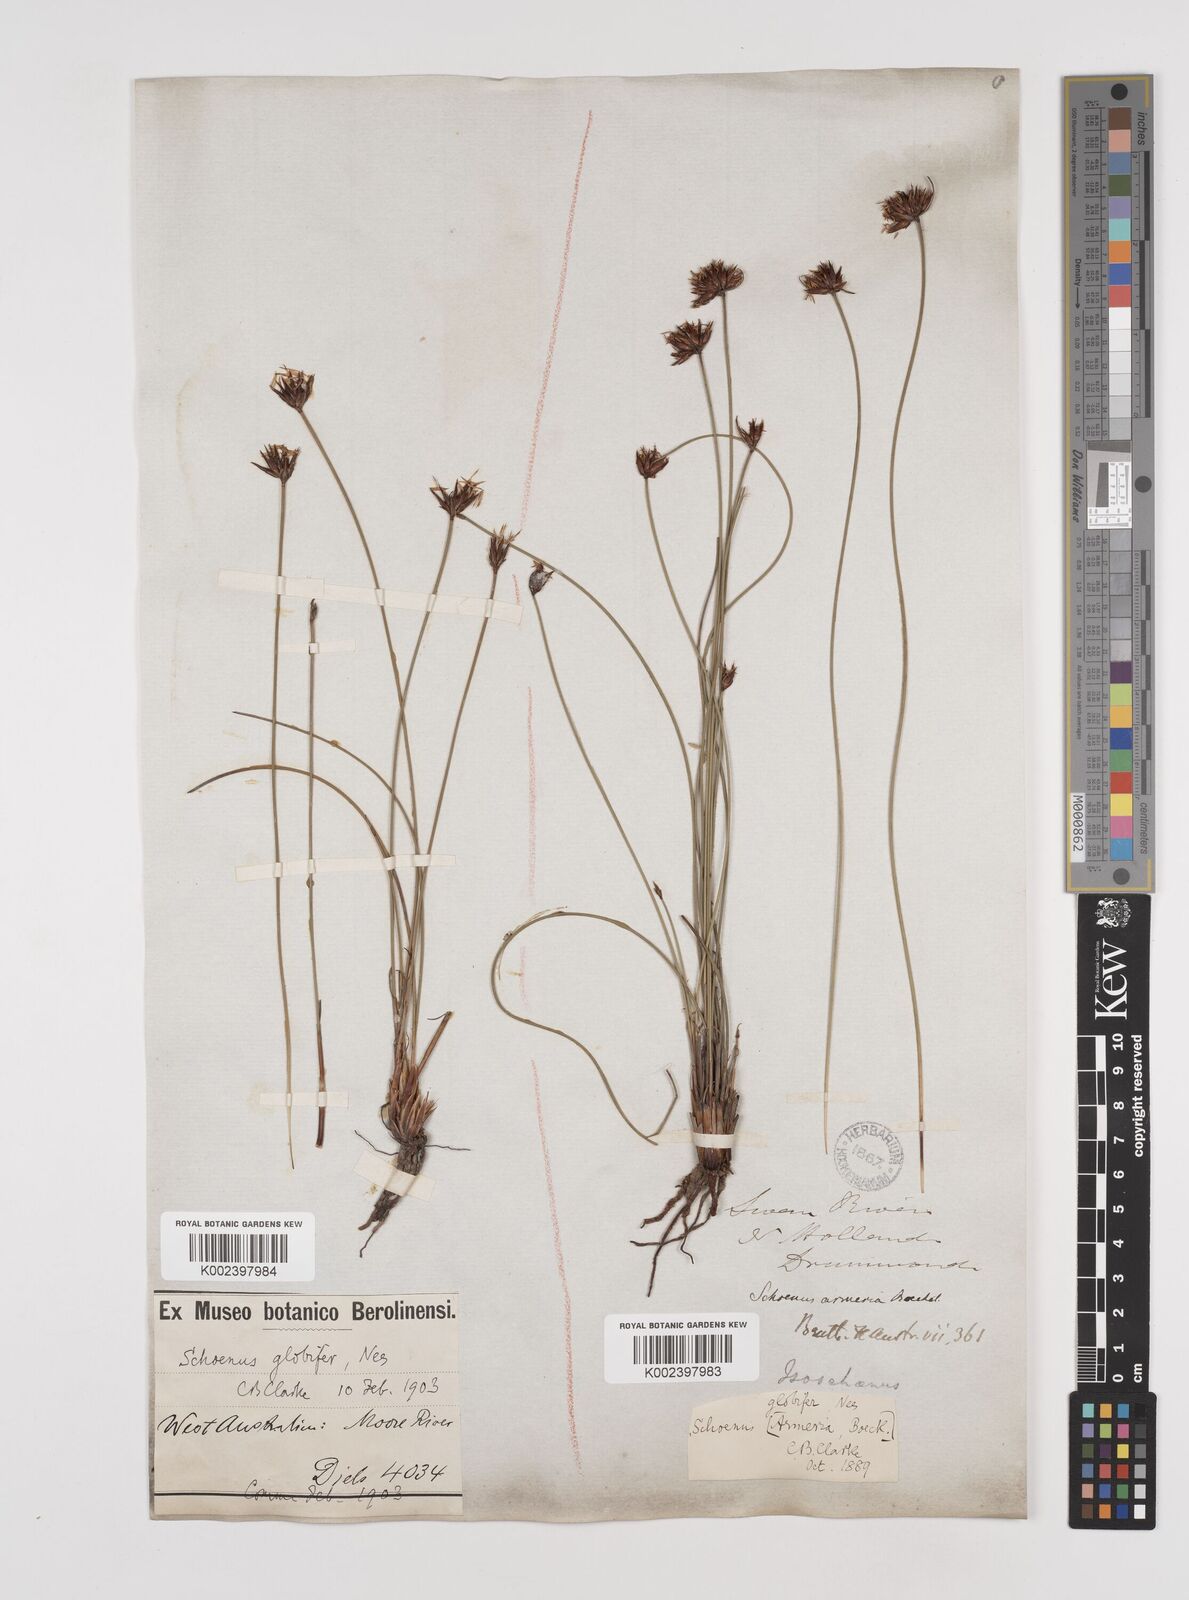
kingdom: Plantae
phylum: Tracheophyta
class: Liliopsida
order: Poales
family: Cyperaceae
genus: Schoenus
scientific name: Schoenus globifer
